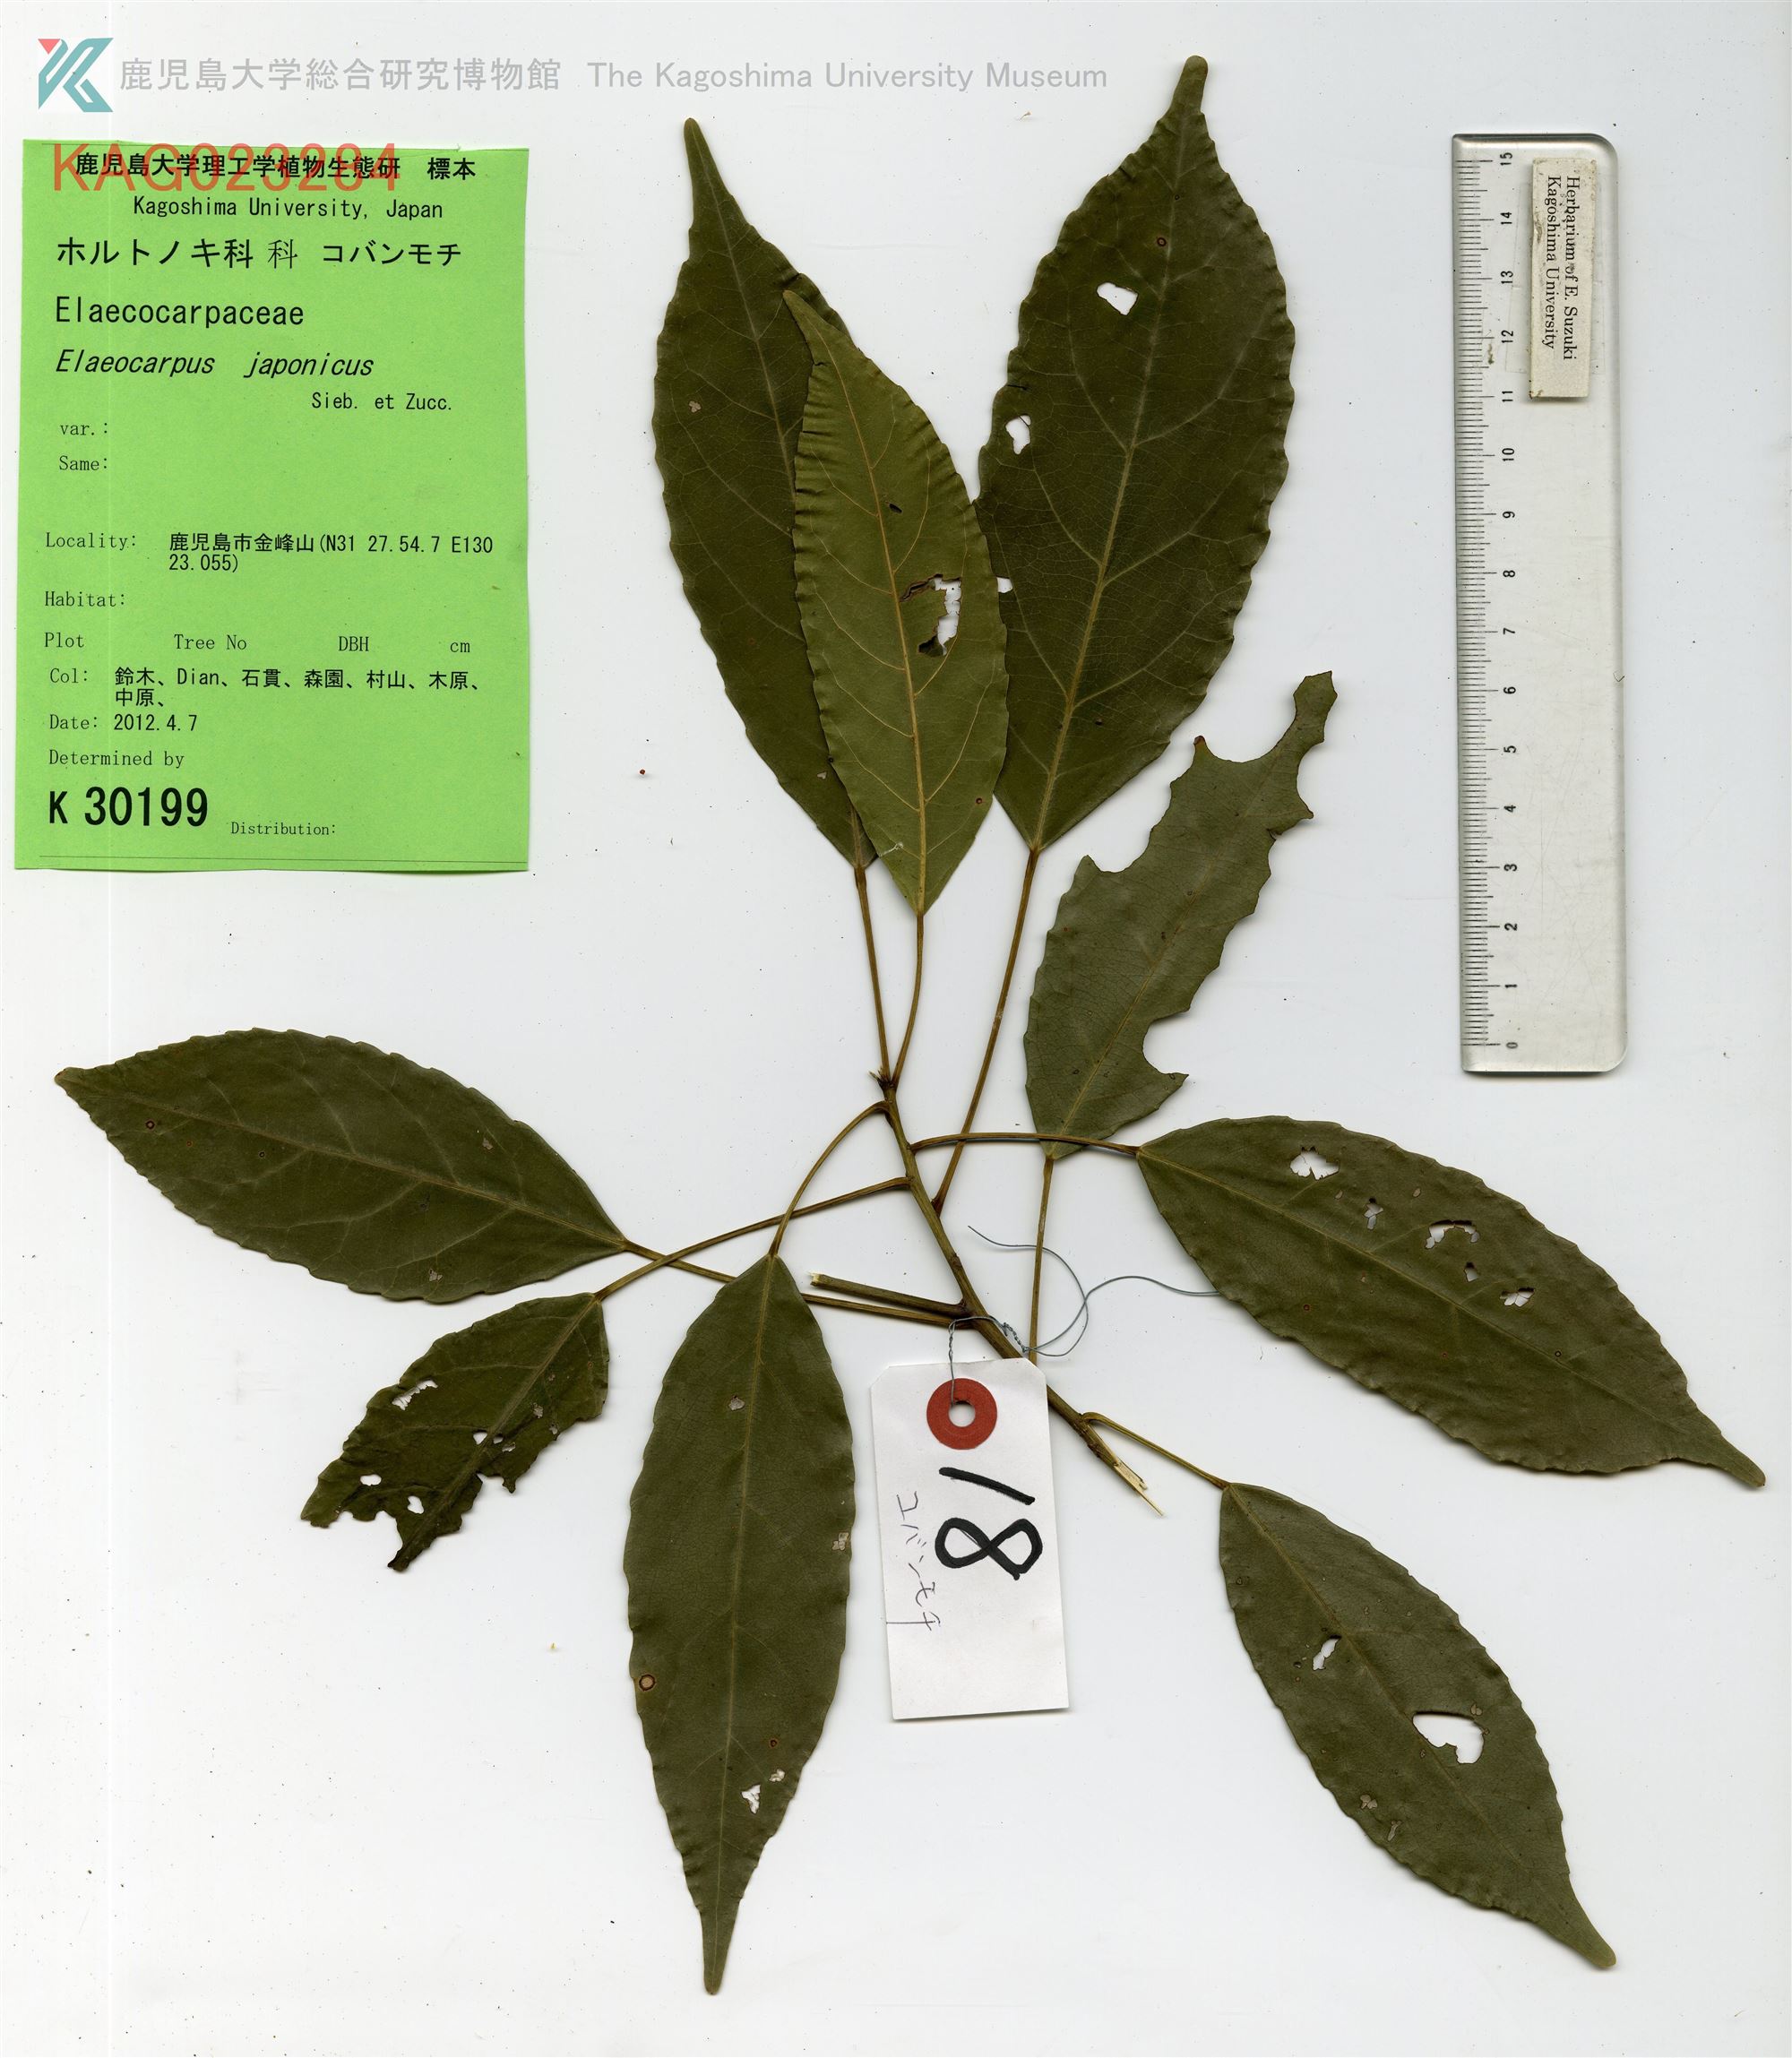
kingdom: Plantae
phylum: Tracheophyta
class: Magnoliopsida
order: Oxalidales
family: Elaeocarpaceae
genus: Elaeocarpus
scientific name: Elaeocarpus japonicus
